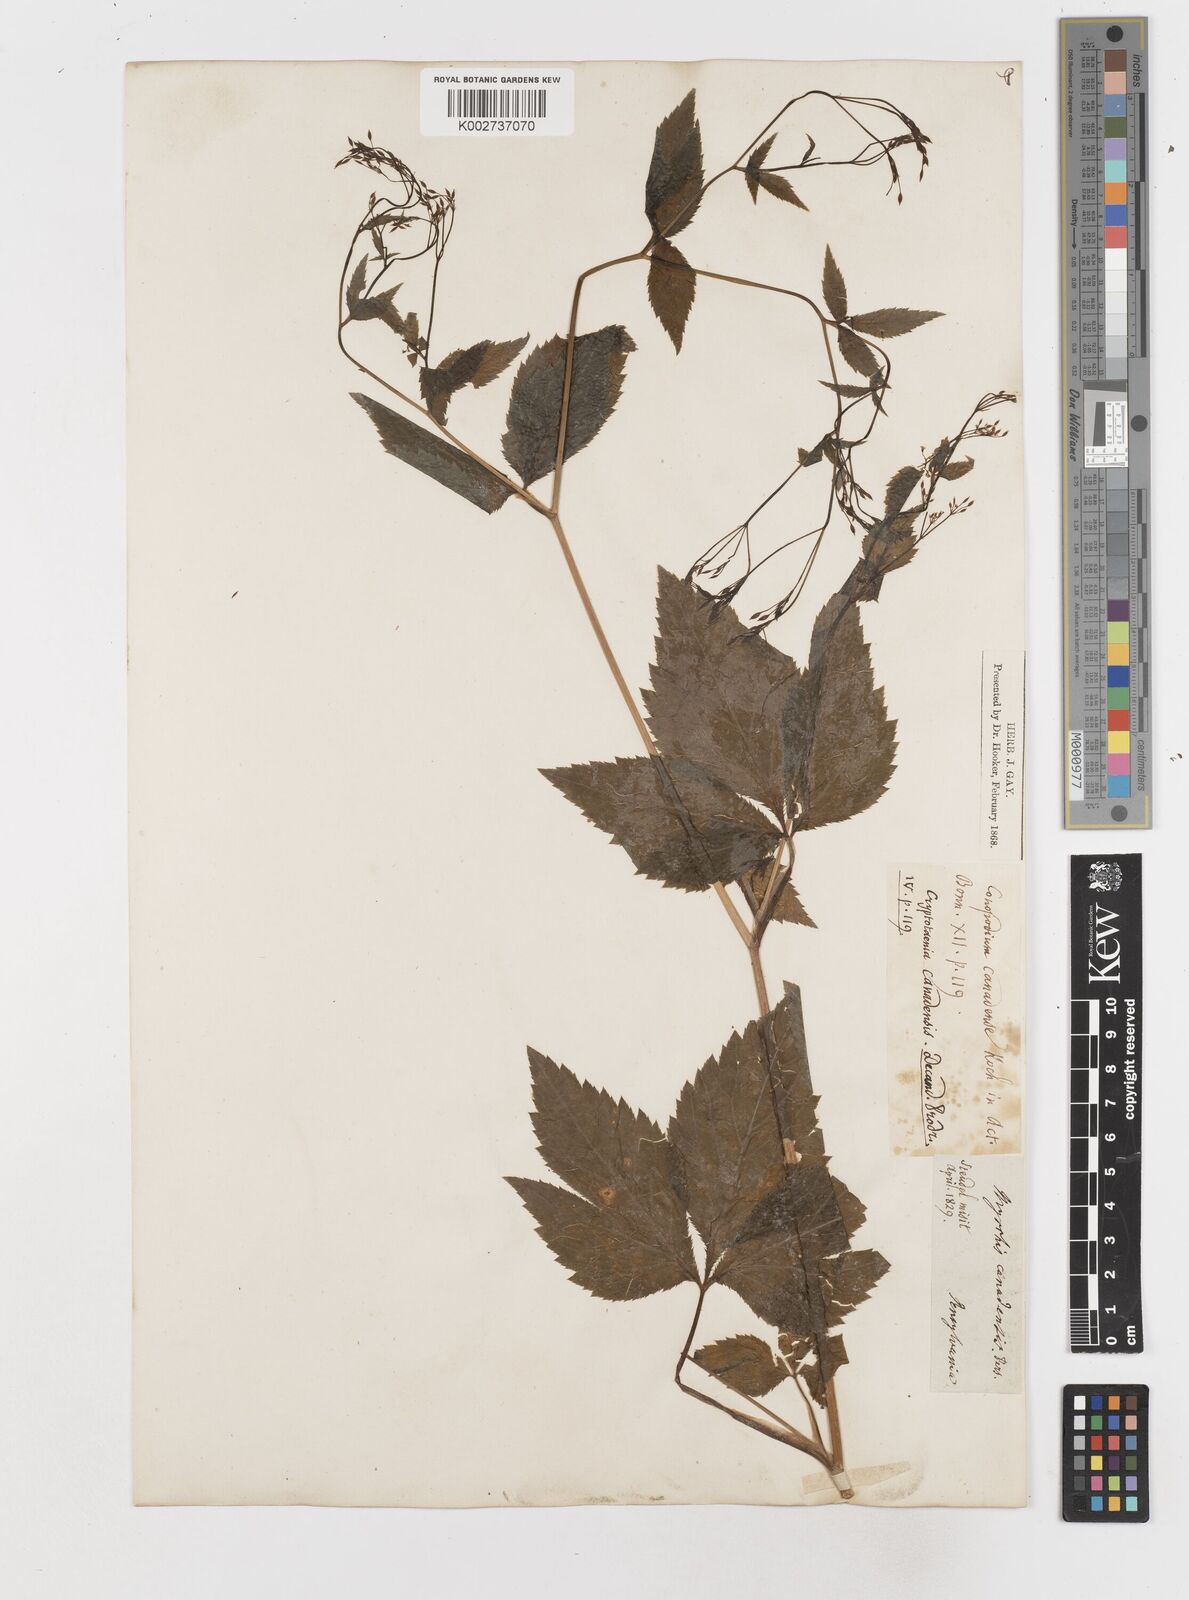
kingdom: Plantae
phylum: Tracheophyta
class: Magnoliopsida
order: Apiales
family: Apiaceae
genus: Cryptotaenia
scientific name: Cryptotaenia canadensis
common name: Honewort
